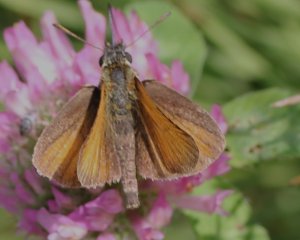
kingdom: Animalia
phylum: Arthropoda
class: Insecta
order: Lepidoptera
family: Hesperiidae
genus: Thymelicus
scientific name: Thymelicus lineola
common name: European Skipper
